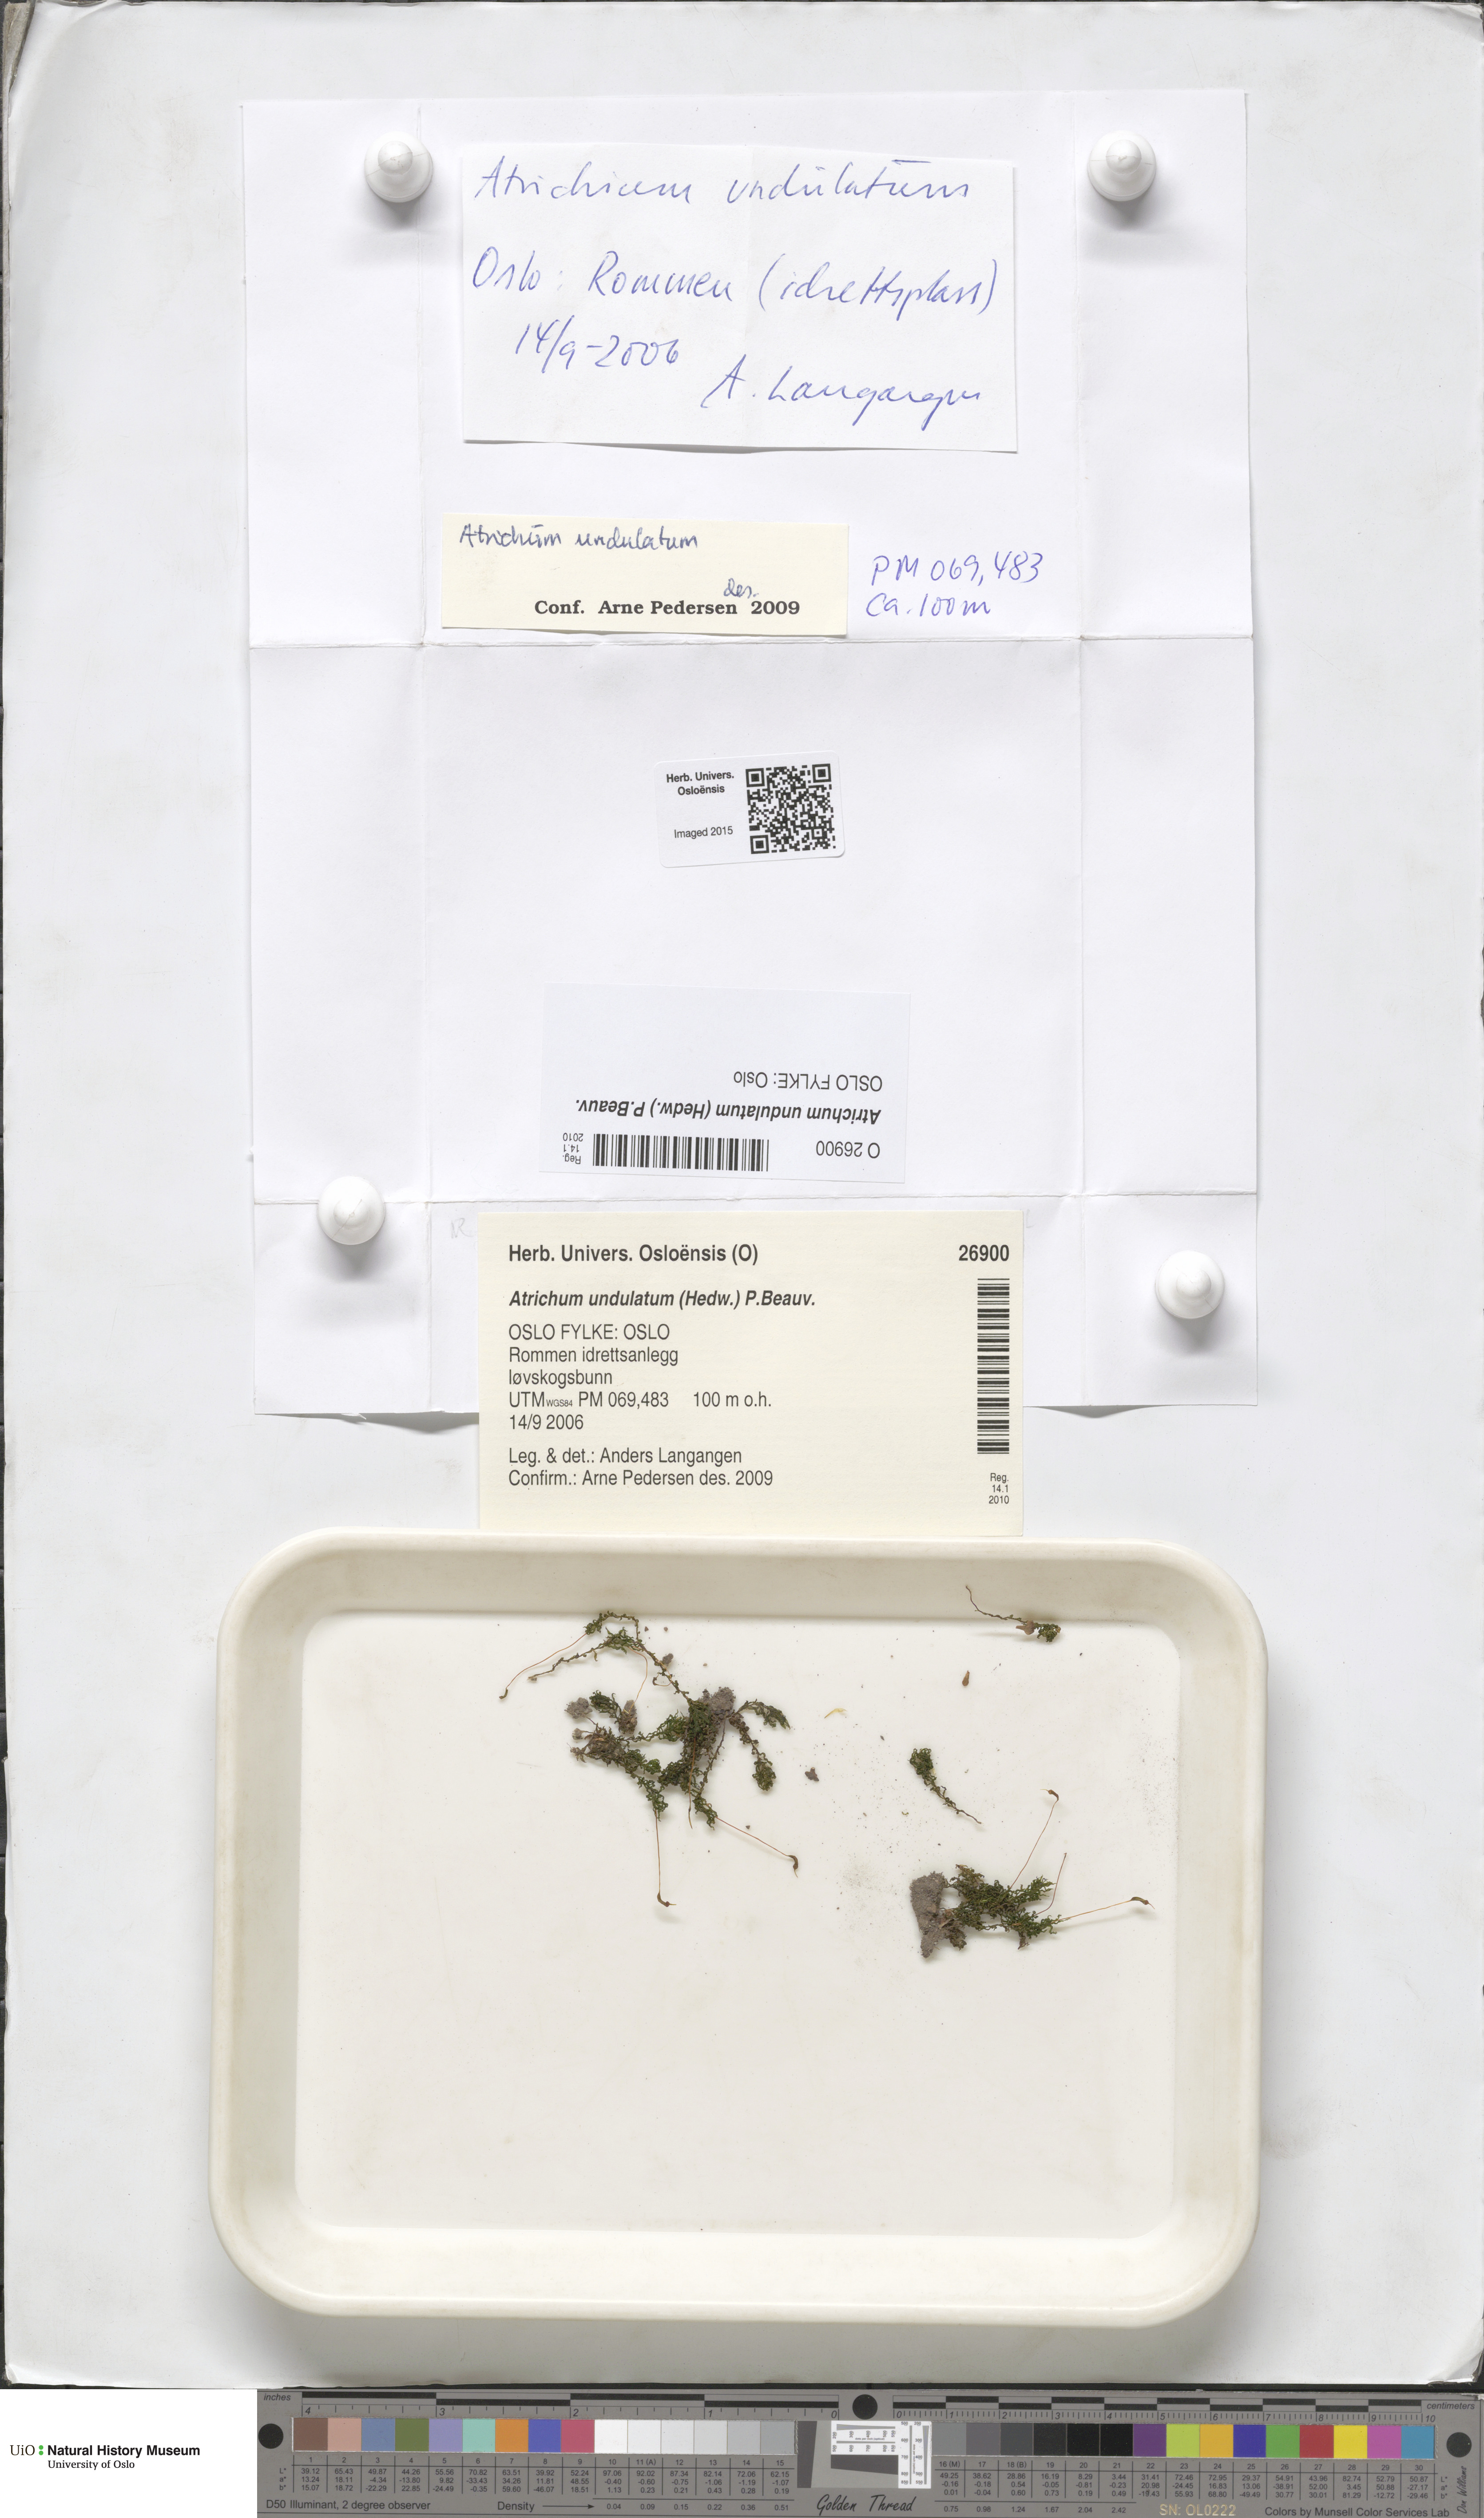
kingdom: Plantae
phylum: Bryophyta
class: Polytrichopsida
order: Polytrichales
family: Polytrichaceae
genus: Atrichum
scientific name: Atrichum undulatum
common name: Common smoothcap
